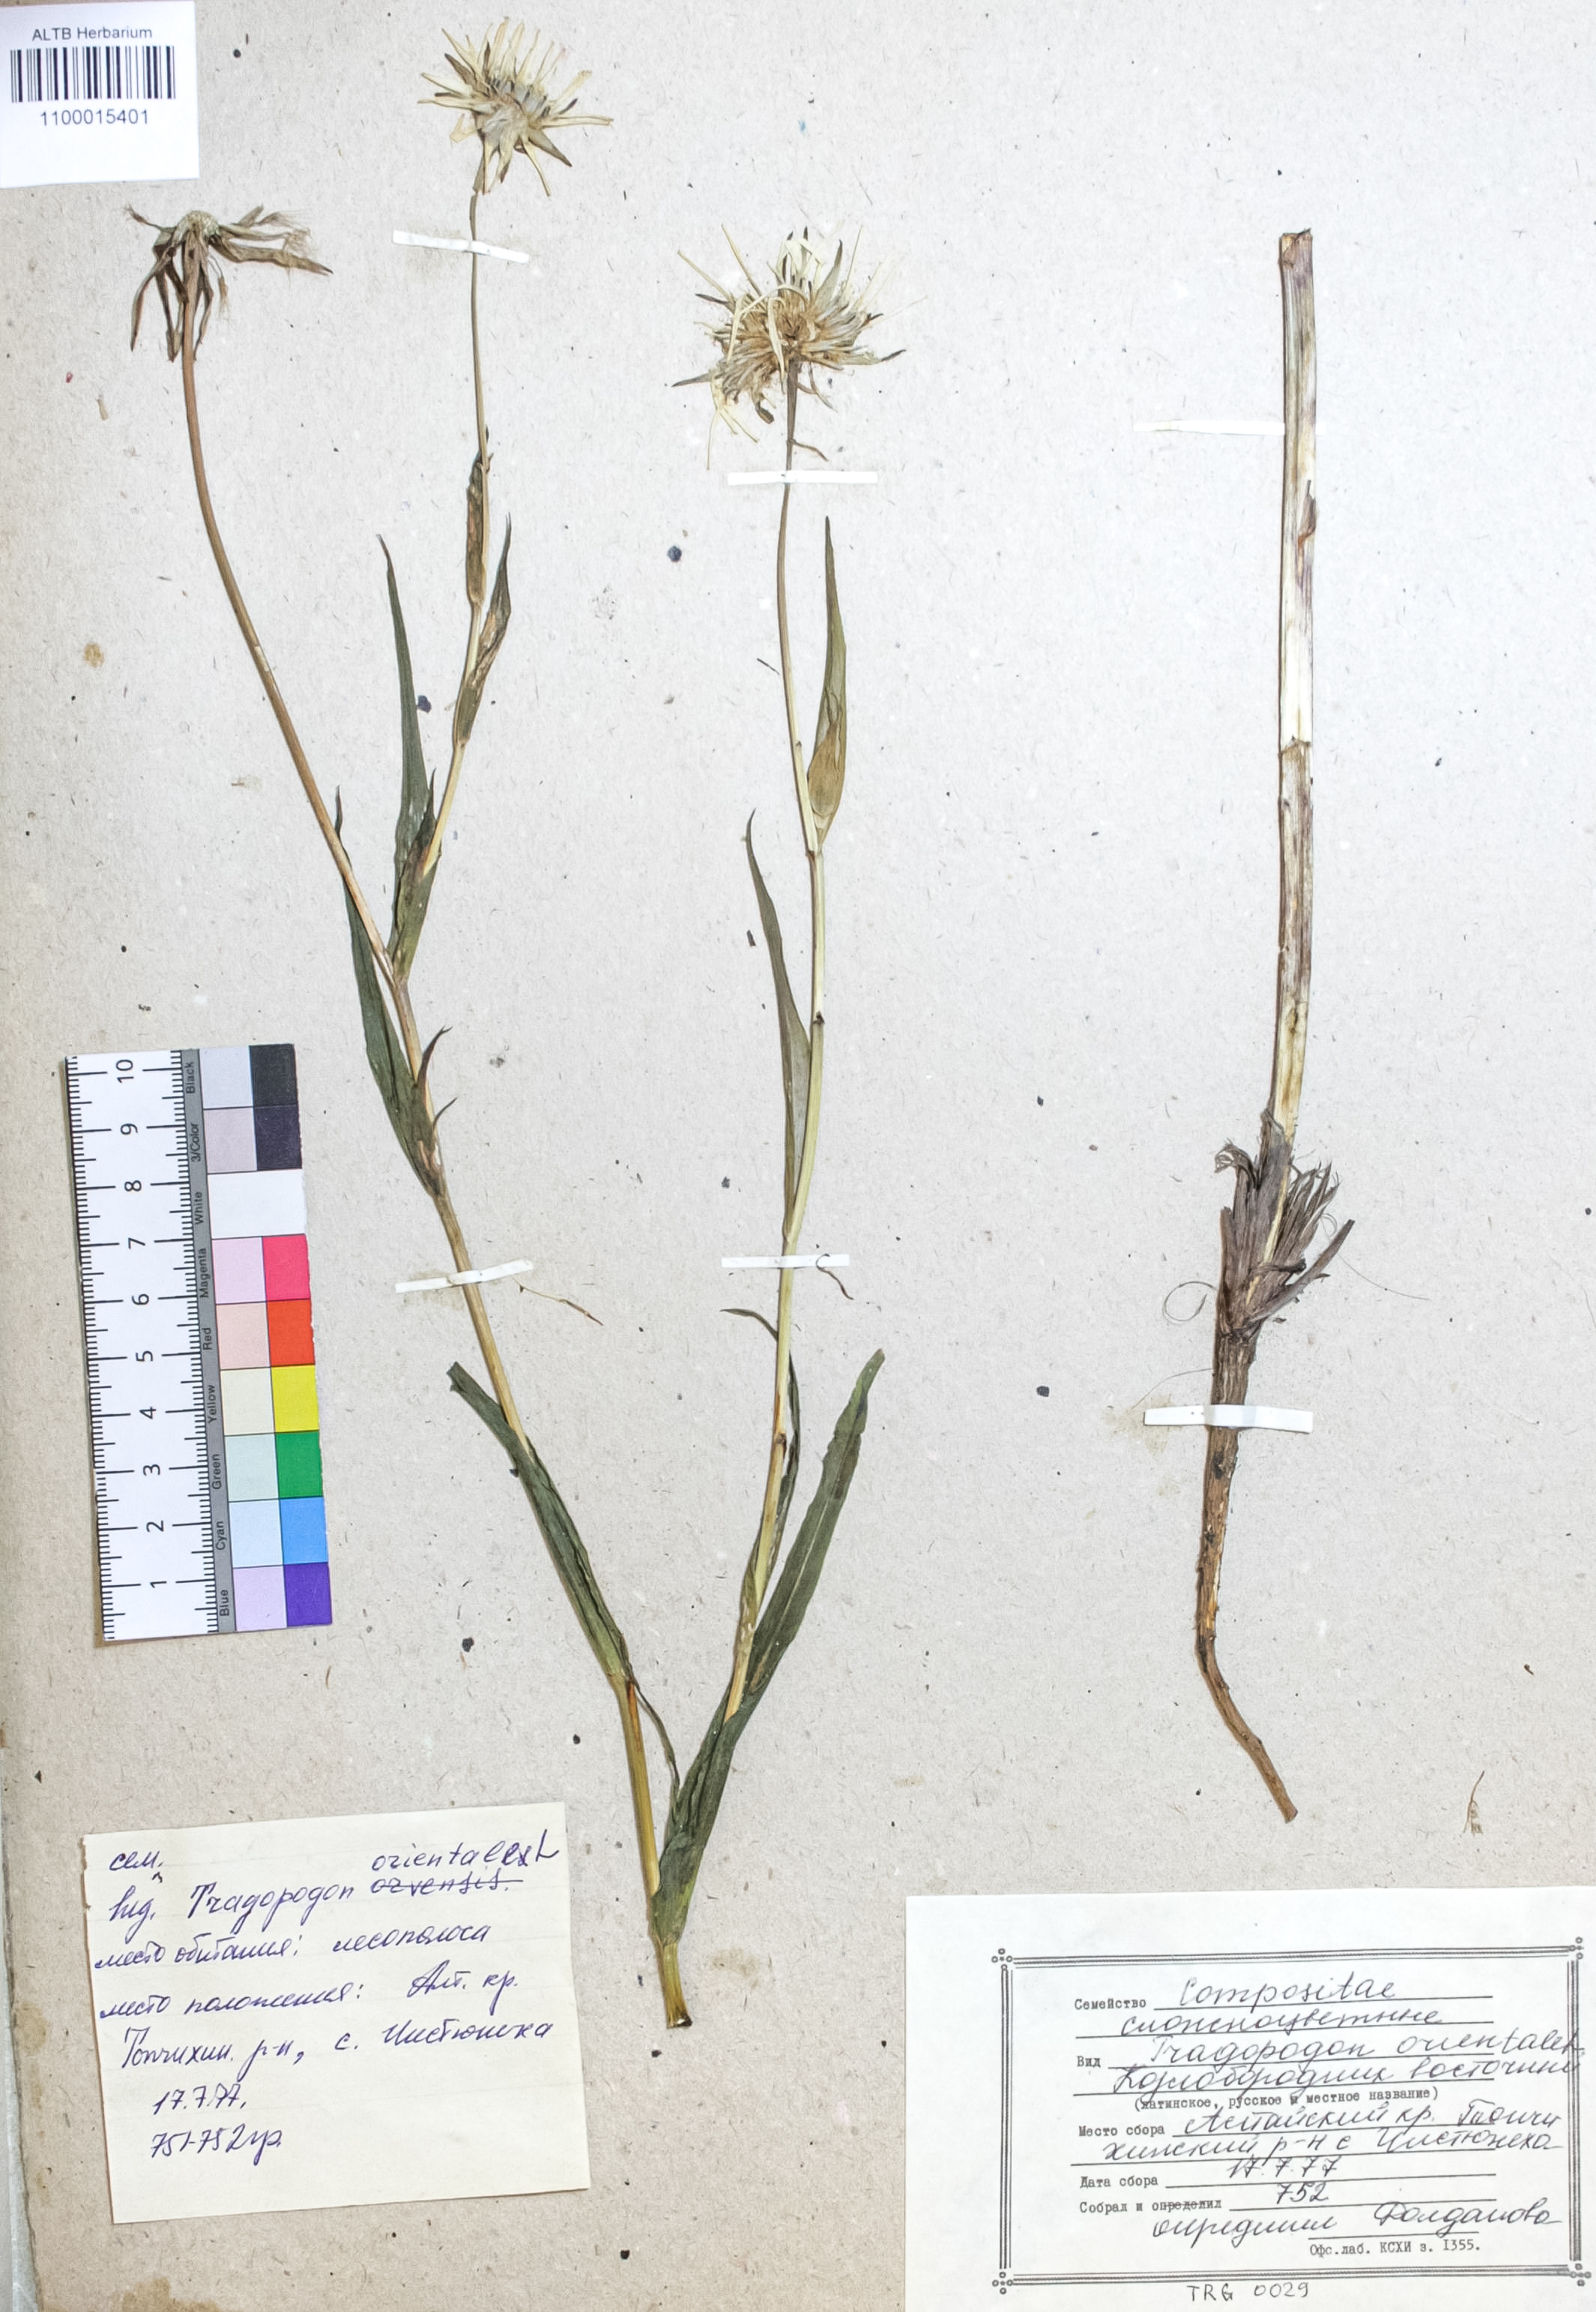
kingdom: Plantae
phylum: Tracheophyta
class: Magnoliopsida
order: Asterales
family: Asteraceae
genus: Tragopogon
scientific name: Tragopogon orientalis
